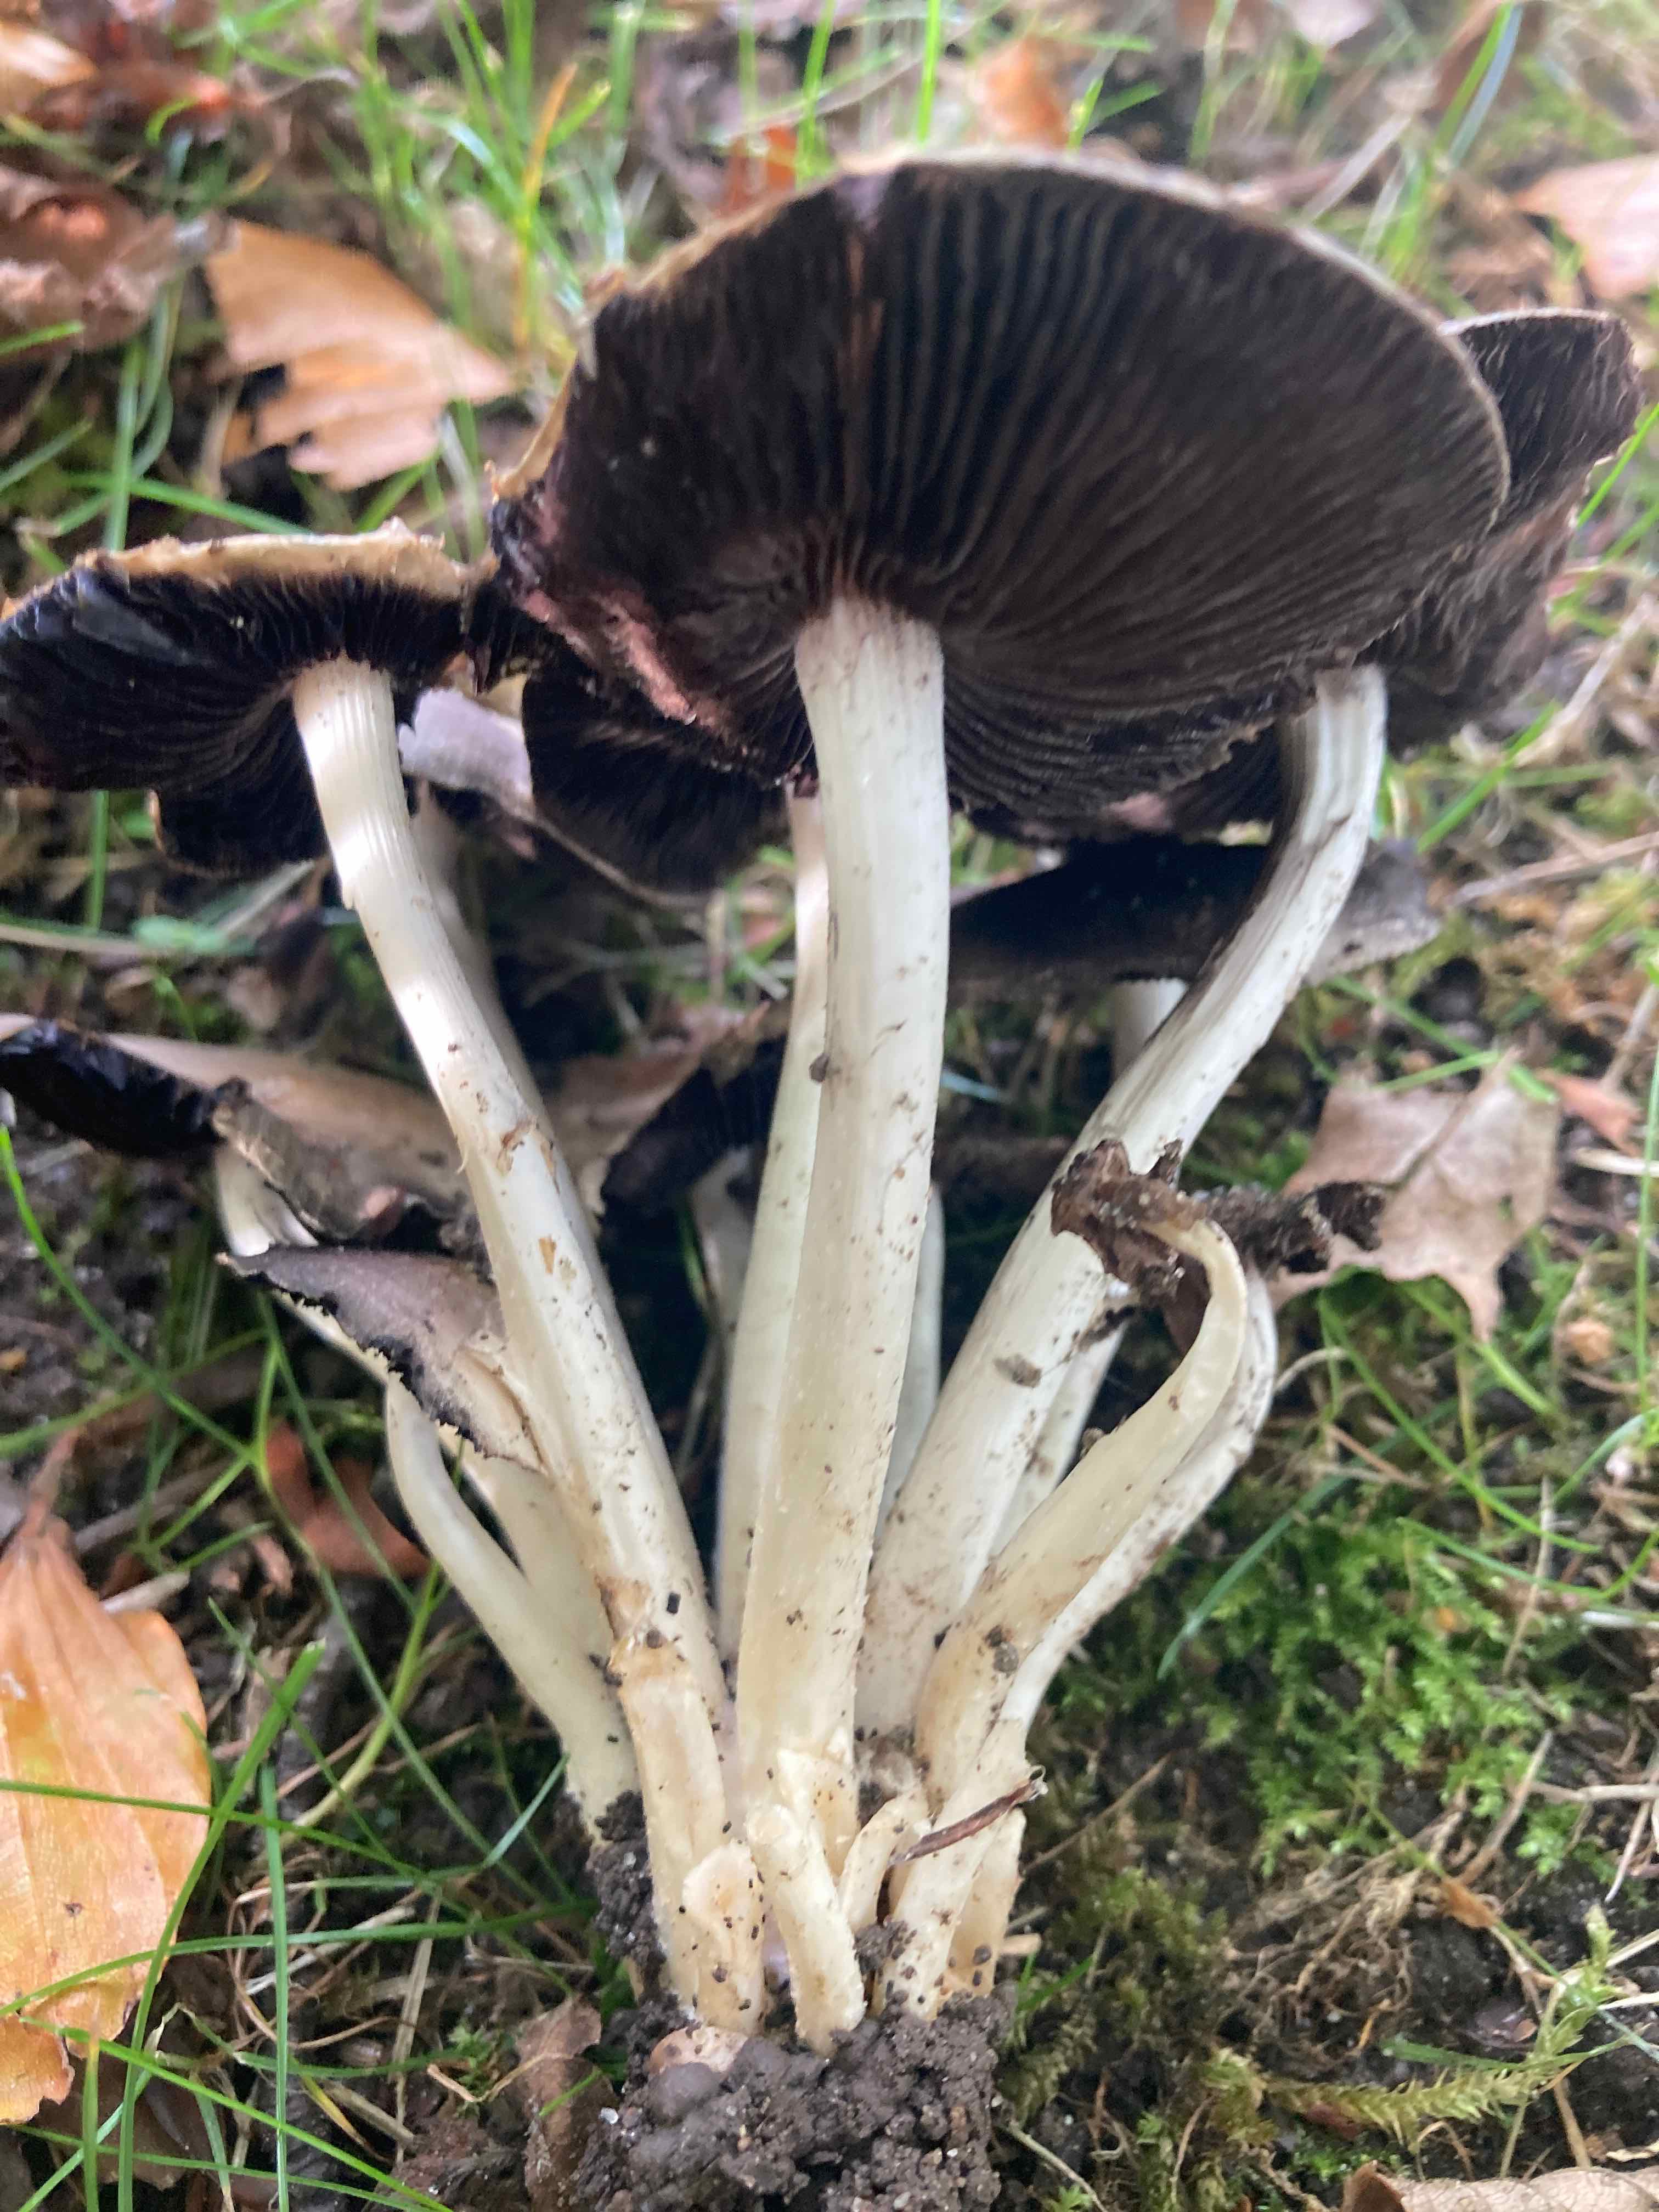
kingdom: Fungi
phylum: Basidiomycota
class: Agaricomycetes
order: Agaricales
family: Psathyrellaceae
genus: Candolleomyces
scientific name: Candolleomyces leucotephrus
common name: askehvid mørkhat
